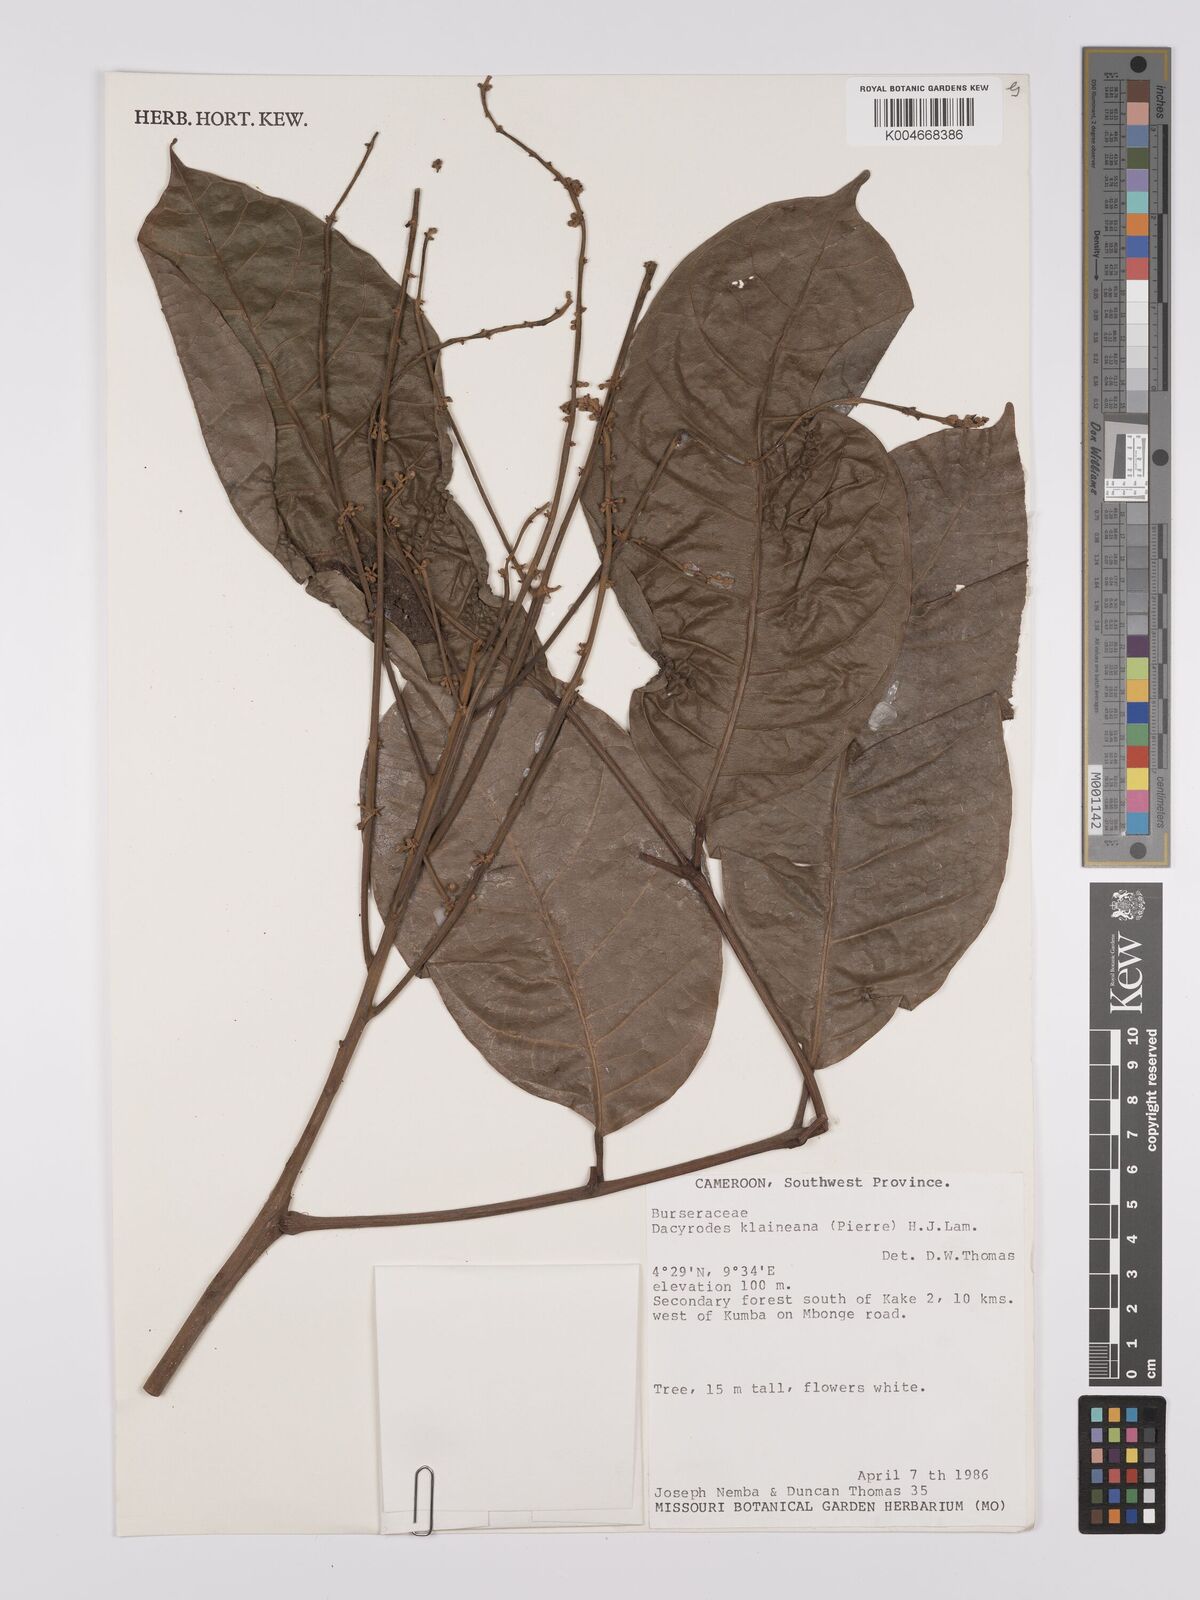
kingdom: Plantae
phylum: Tracheophyta
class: Magnoliopsida
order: Sapindales
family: Burseraceae
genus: Pachylobus
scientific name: Pachylobus klaineana
